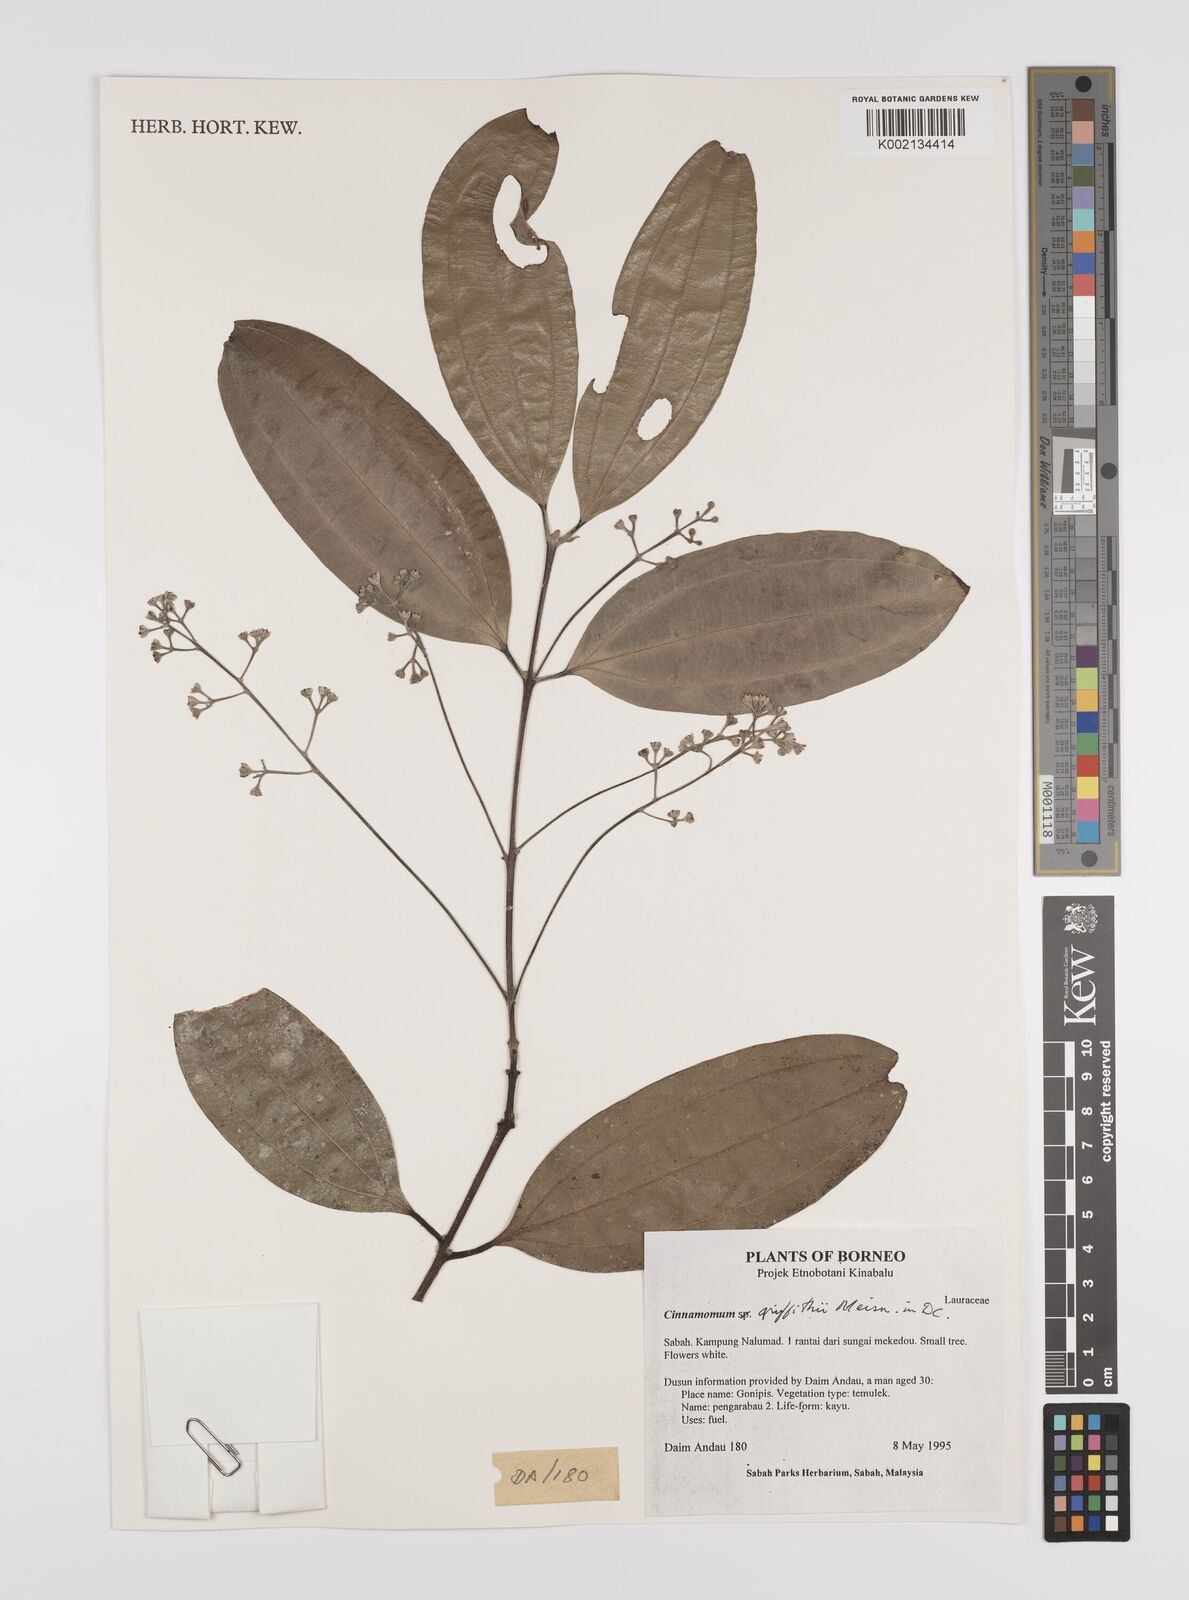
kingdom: Plantae
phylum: Tracheophyta
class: Magnoliopsida
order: Laurales
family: Lauraceae
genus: Cinnamomum
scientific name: Cinnamomum iners
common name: Wild cinnamon
